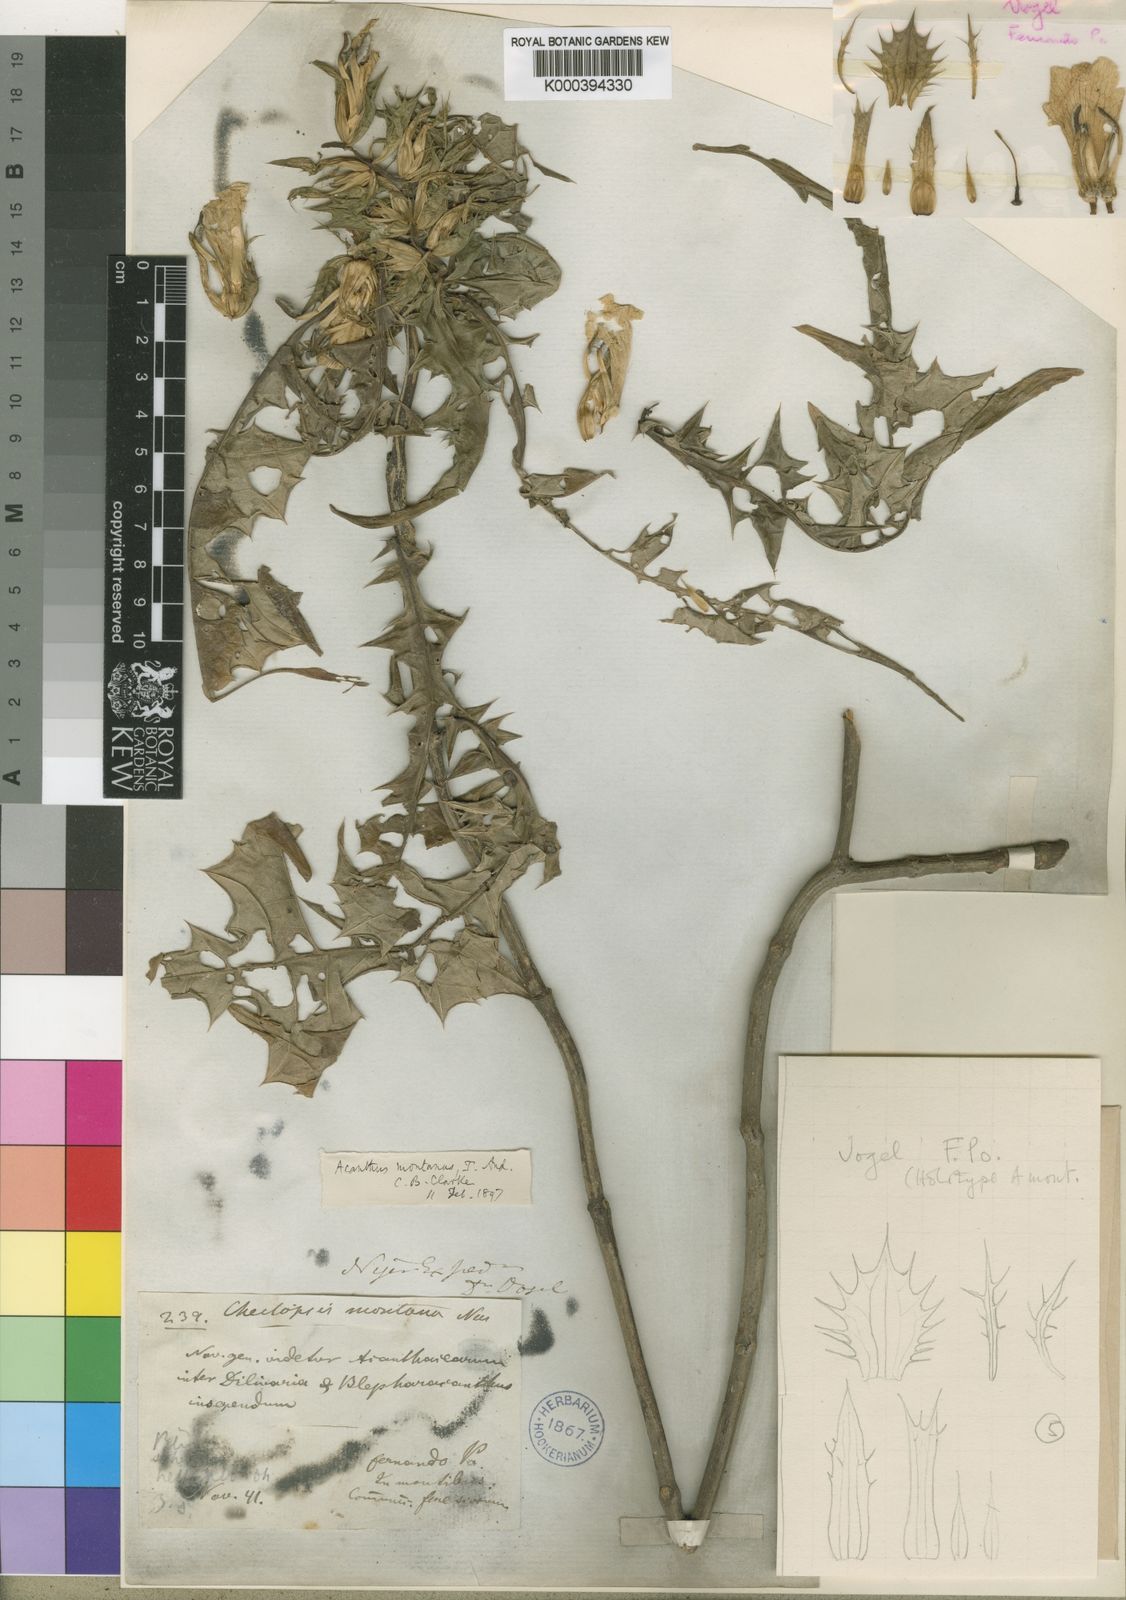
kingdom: Plantae
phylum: Tracheophyta
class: Magnoliopsida
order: Lamiales
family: Acanthaceae
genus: Acanthus
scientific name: Acanthus montanus
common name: Mountain thistle
